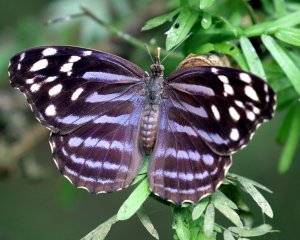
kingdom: Animalia
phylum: Arthropoda
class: Insecta
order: Lepidoptera
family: Nymphalidae
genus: Myscelia
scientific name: Myscelia ethusa
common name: Mexican Bluewing
